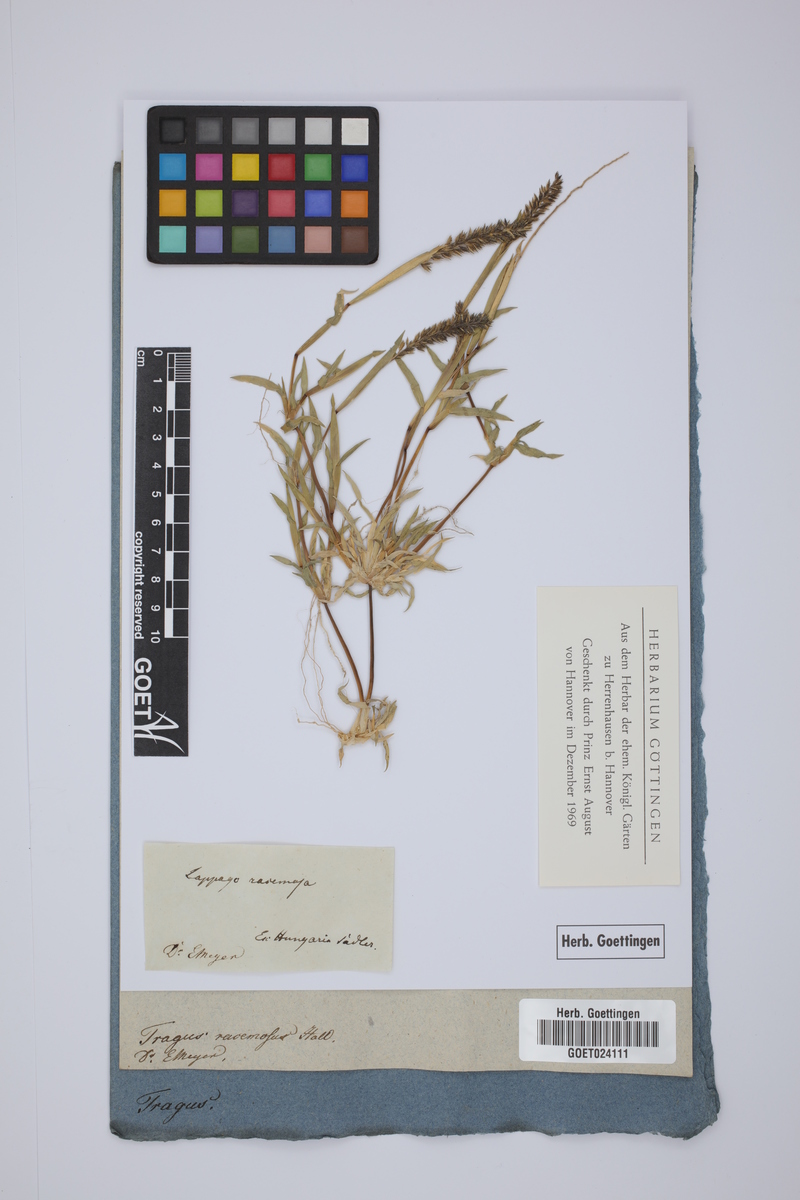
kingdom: Plantae
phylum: Tracheophyta
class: Liliopsida
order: Poales
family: Poaceae
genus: Tragus
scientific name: Tragus racemosus
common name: European bur-grass
